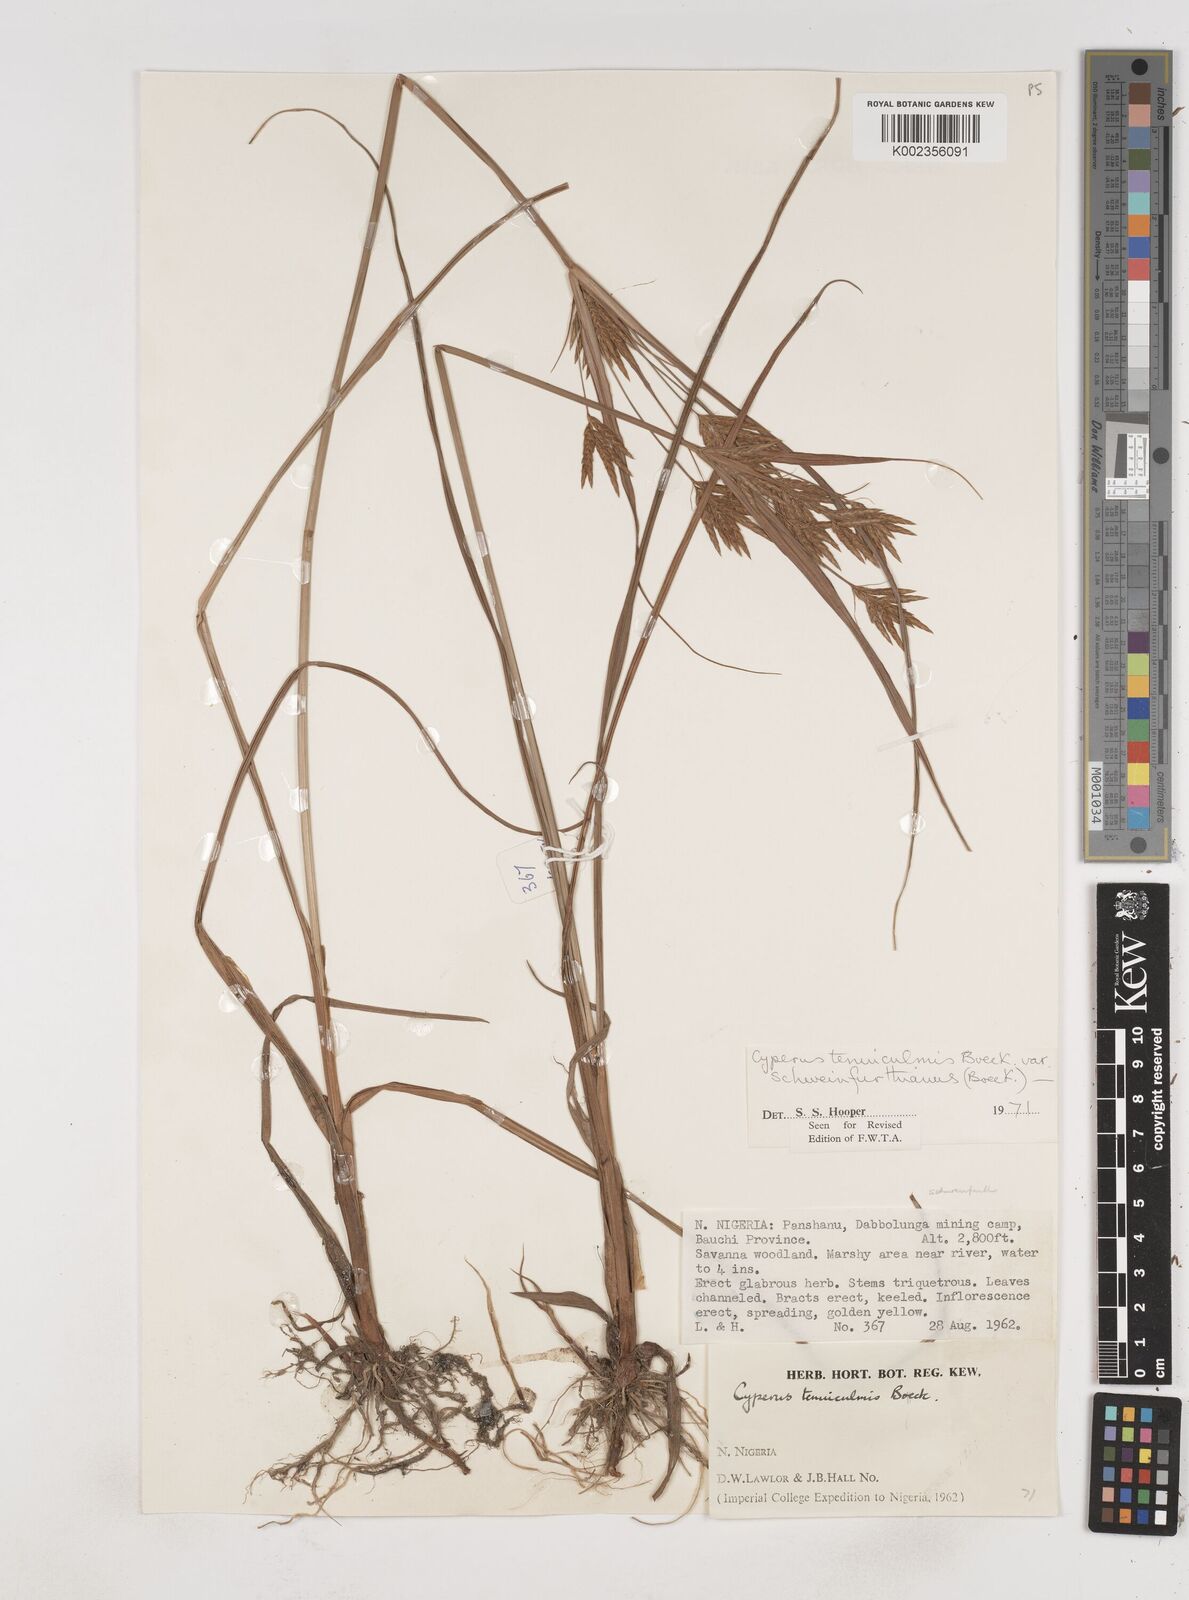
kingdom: Plantae
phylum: Tracheophyta
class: Liliopsida
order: Poales
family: Cyperaceae
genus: Cyperus
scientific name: Cyperus tenuiculmis
